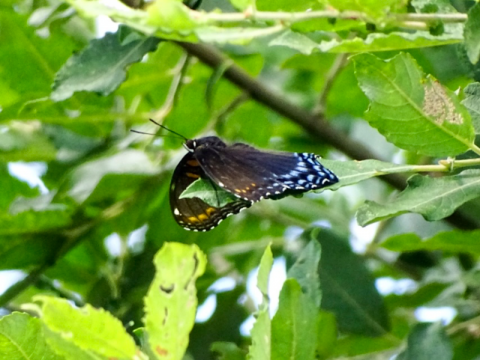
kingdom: Animalia
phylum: Arthropoda
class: Insecta
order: Lepidoptera
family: Nymphalidae
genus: Limenitis
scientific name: Limenitis arthemis
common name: Red-spotted Admiral
